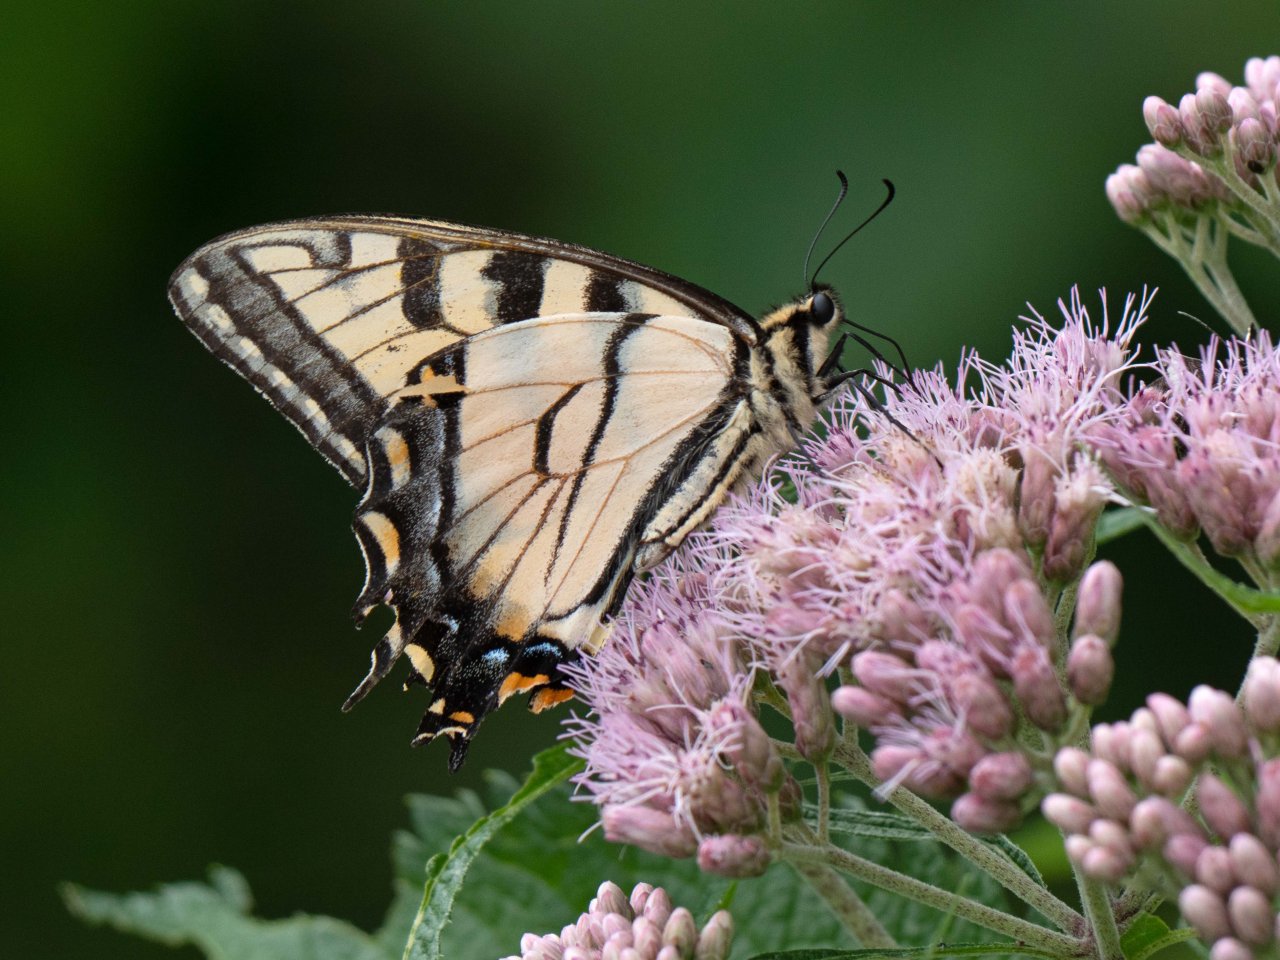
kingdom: Animalia
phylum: Arthropoda
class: Insecta
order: Lepidoptera
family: Papilionidae
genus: Pterourus
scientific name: Pterourus glaucus
